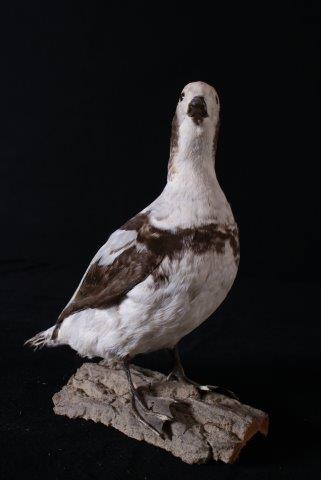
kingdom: Animalia
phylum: Chordata
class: Aves
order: Anseriformes
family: Anatidae
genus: Clangula
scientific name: Clangula hyemalis
